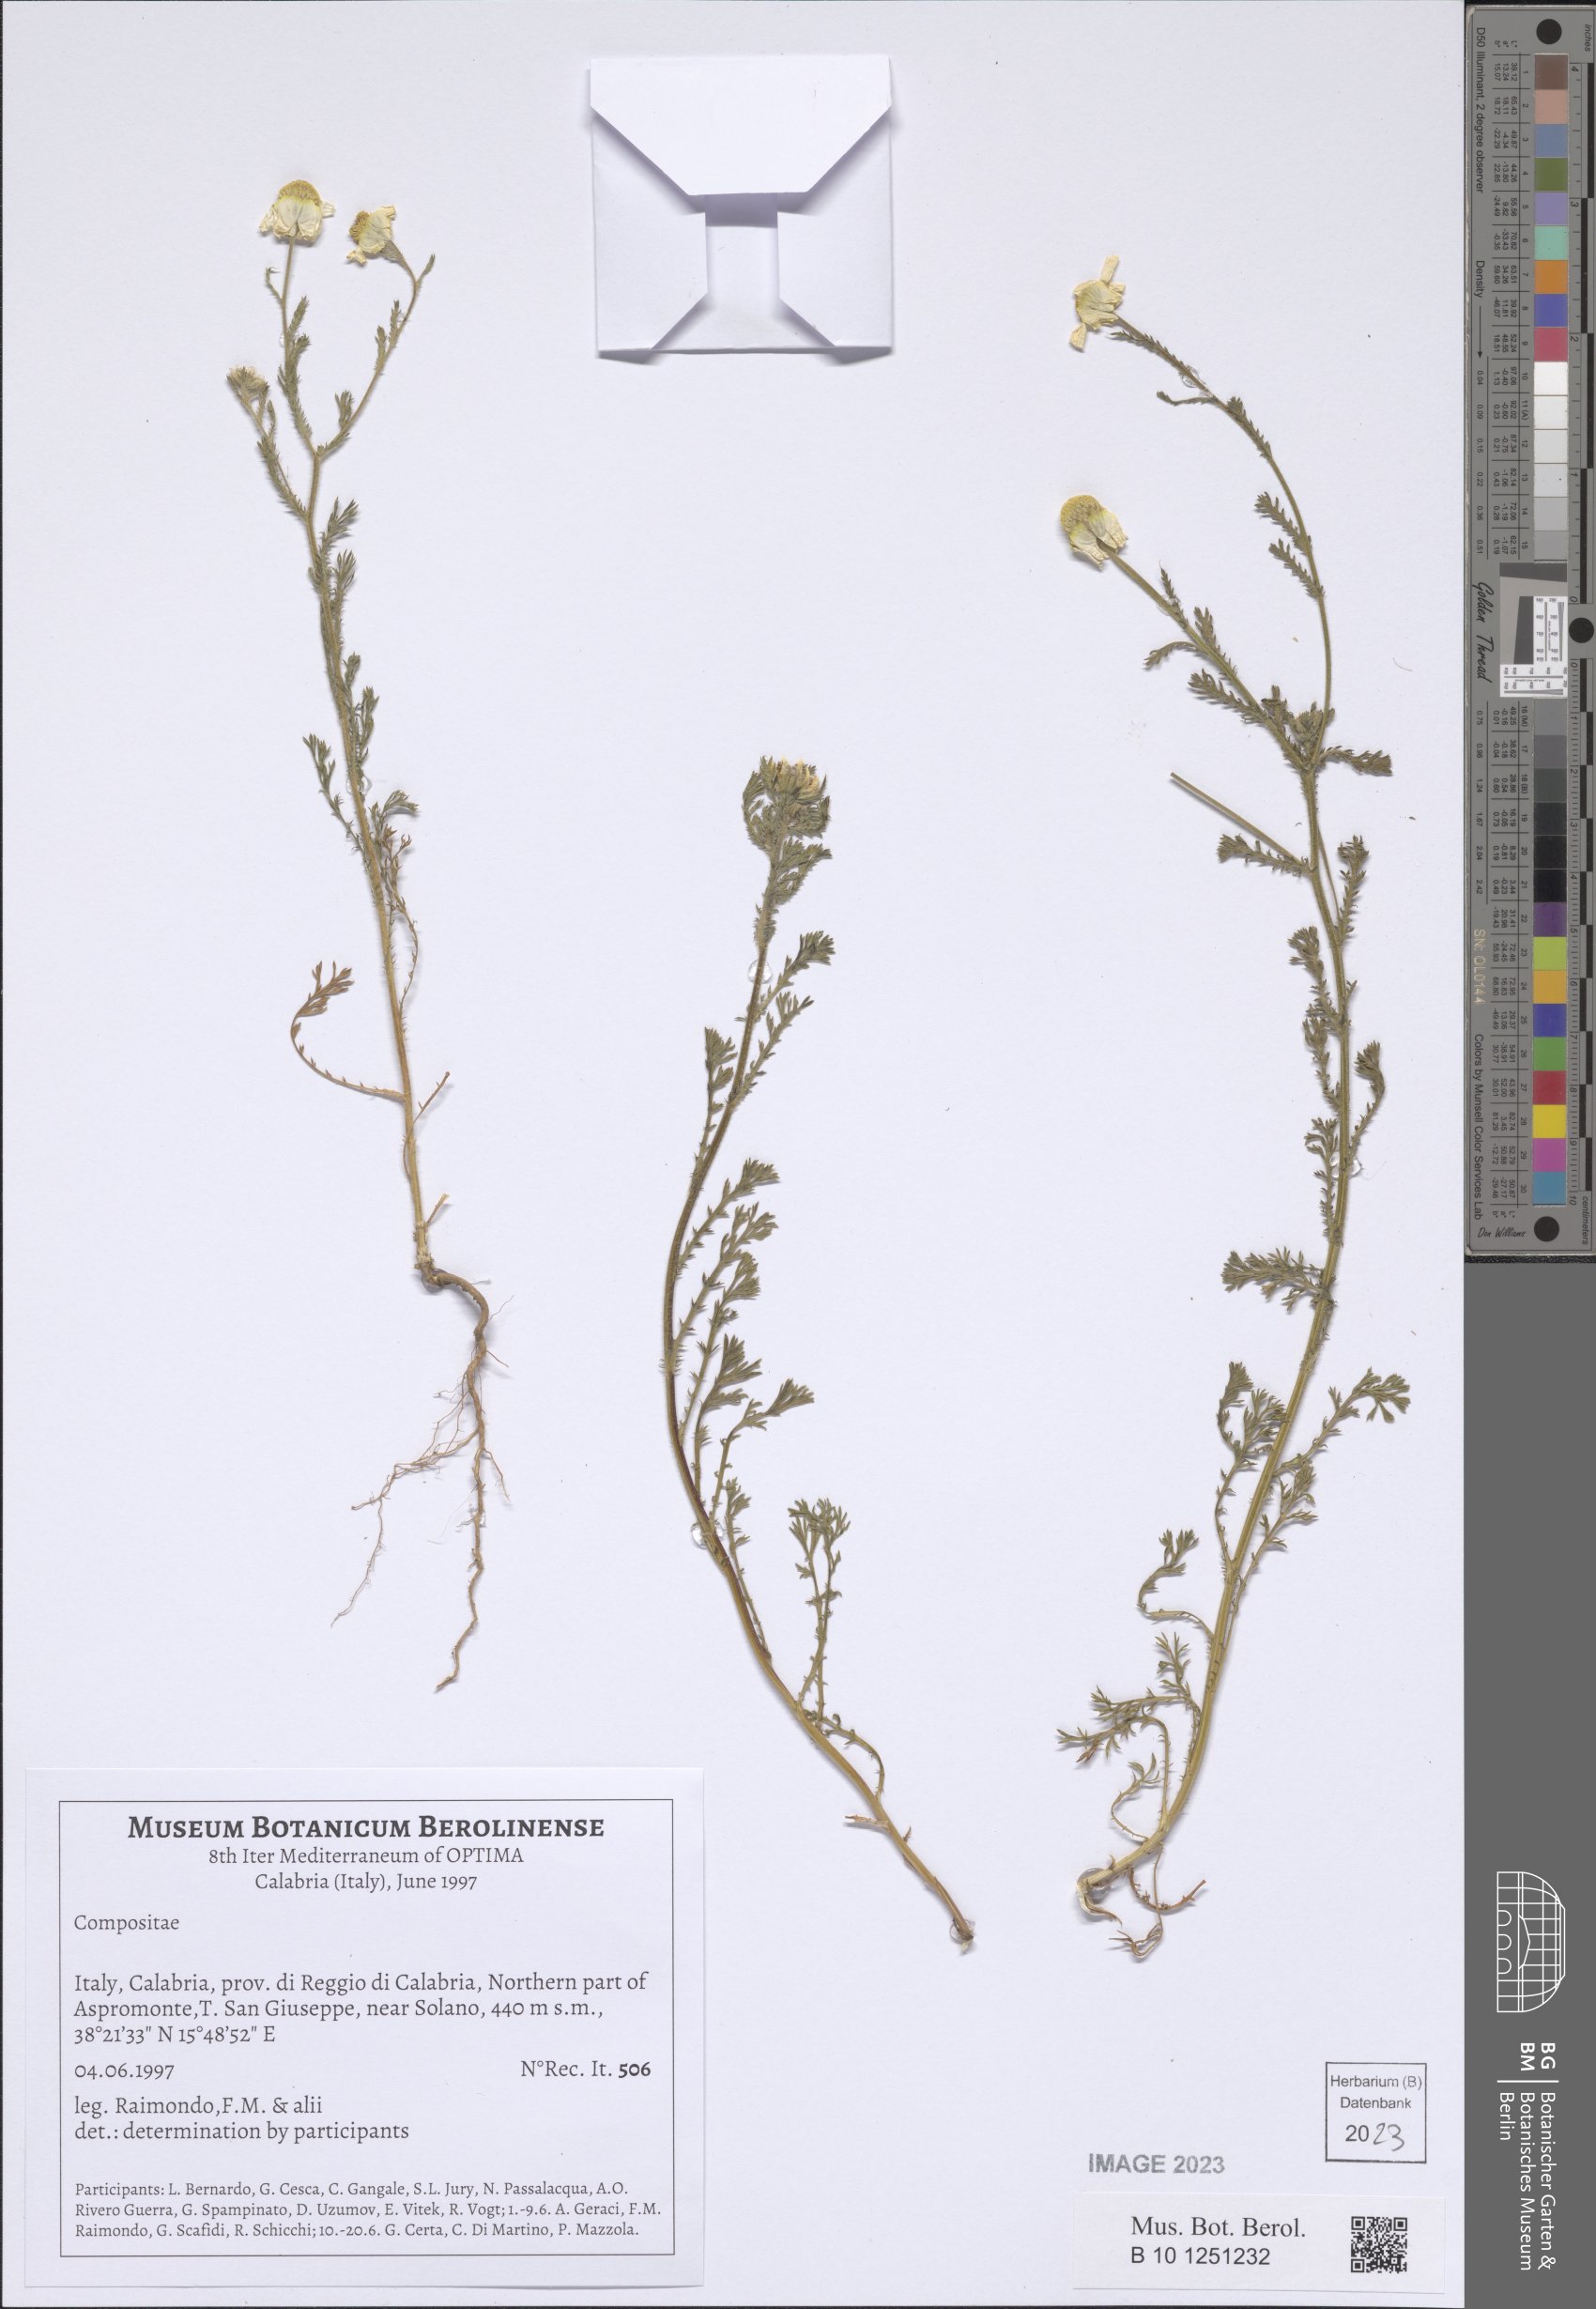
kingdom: Plantae
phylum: Tracheophyta
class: Magnoliopsida
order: Asterales
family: Asteraceae
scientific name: Asteraceae
